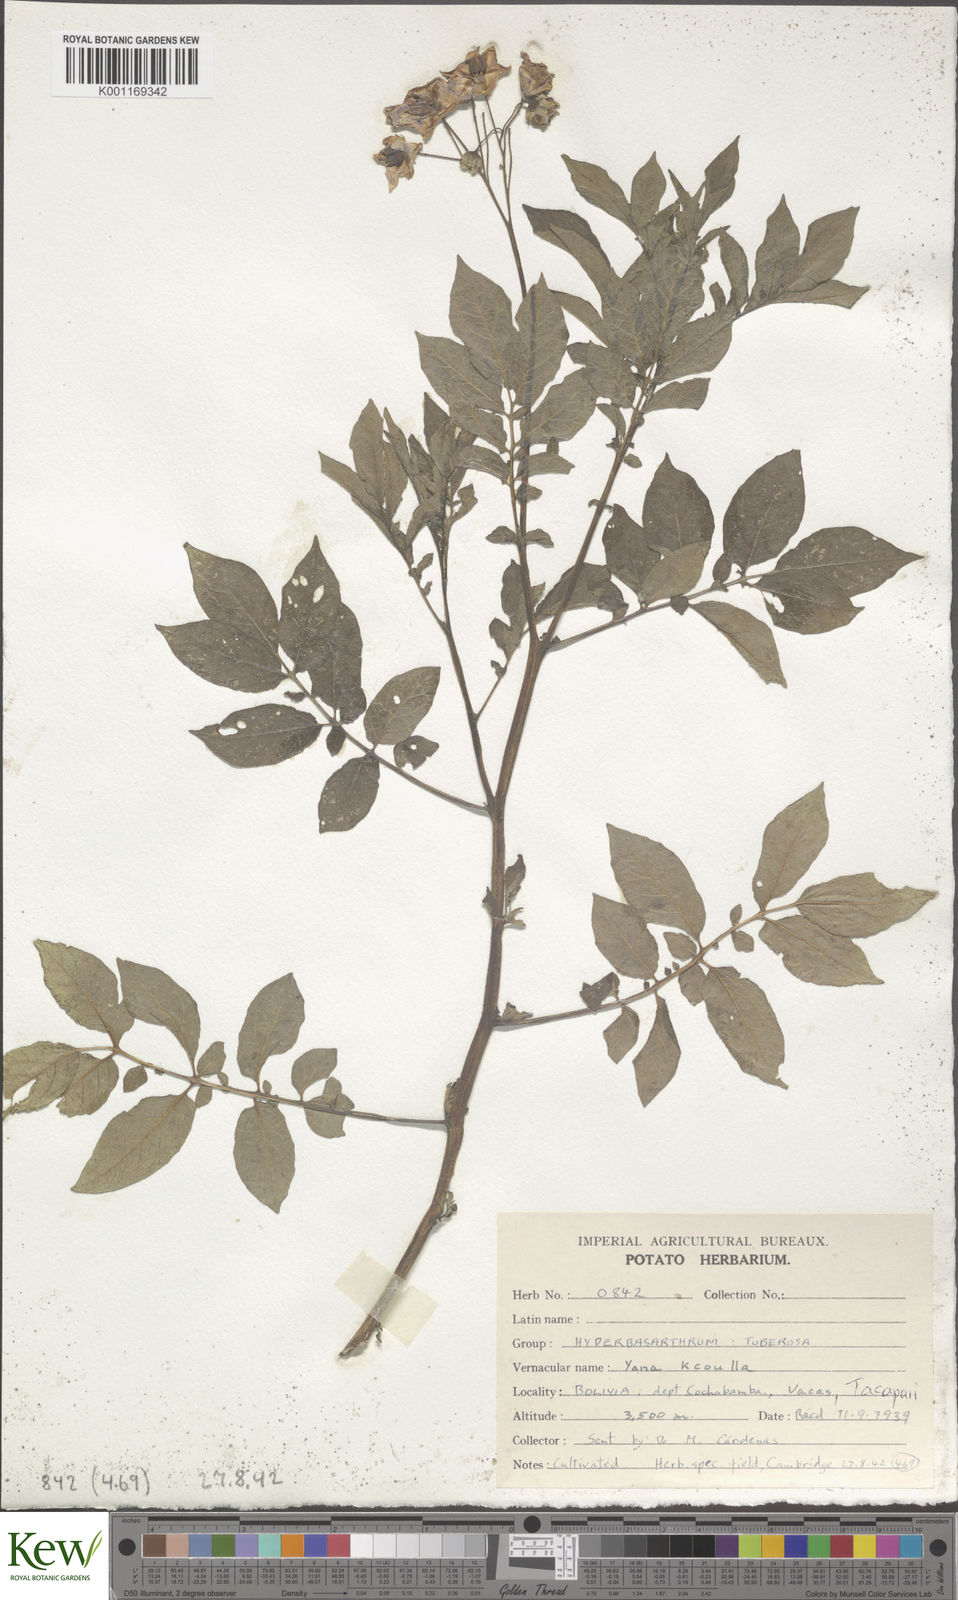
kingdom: Plantae
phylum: Tracheophyta
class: Magnoliopsida
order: Solanales
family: Solanaceae
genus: Solanum
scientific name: Solanum chaucha
